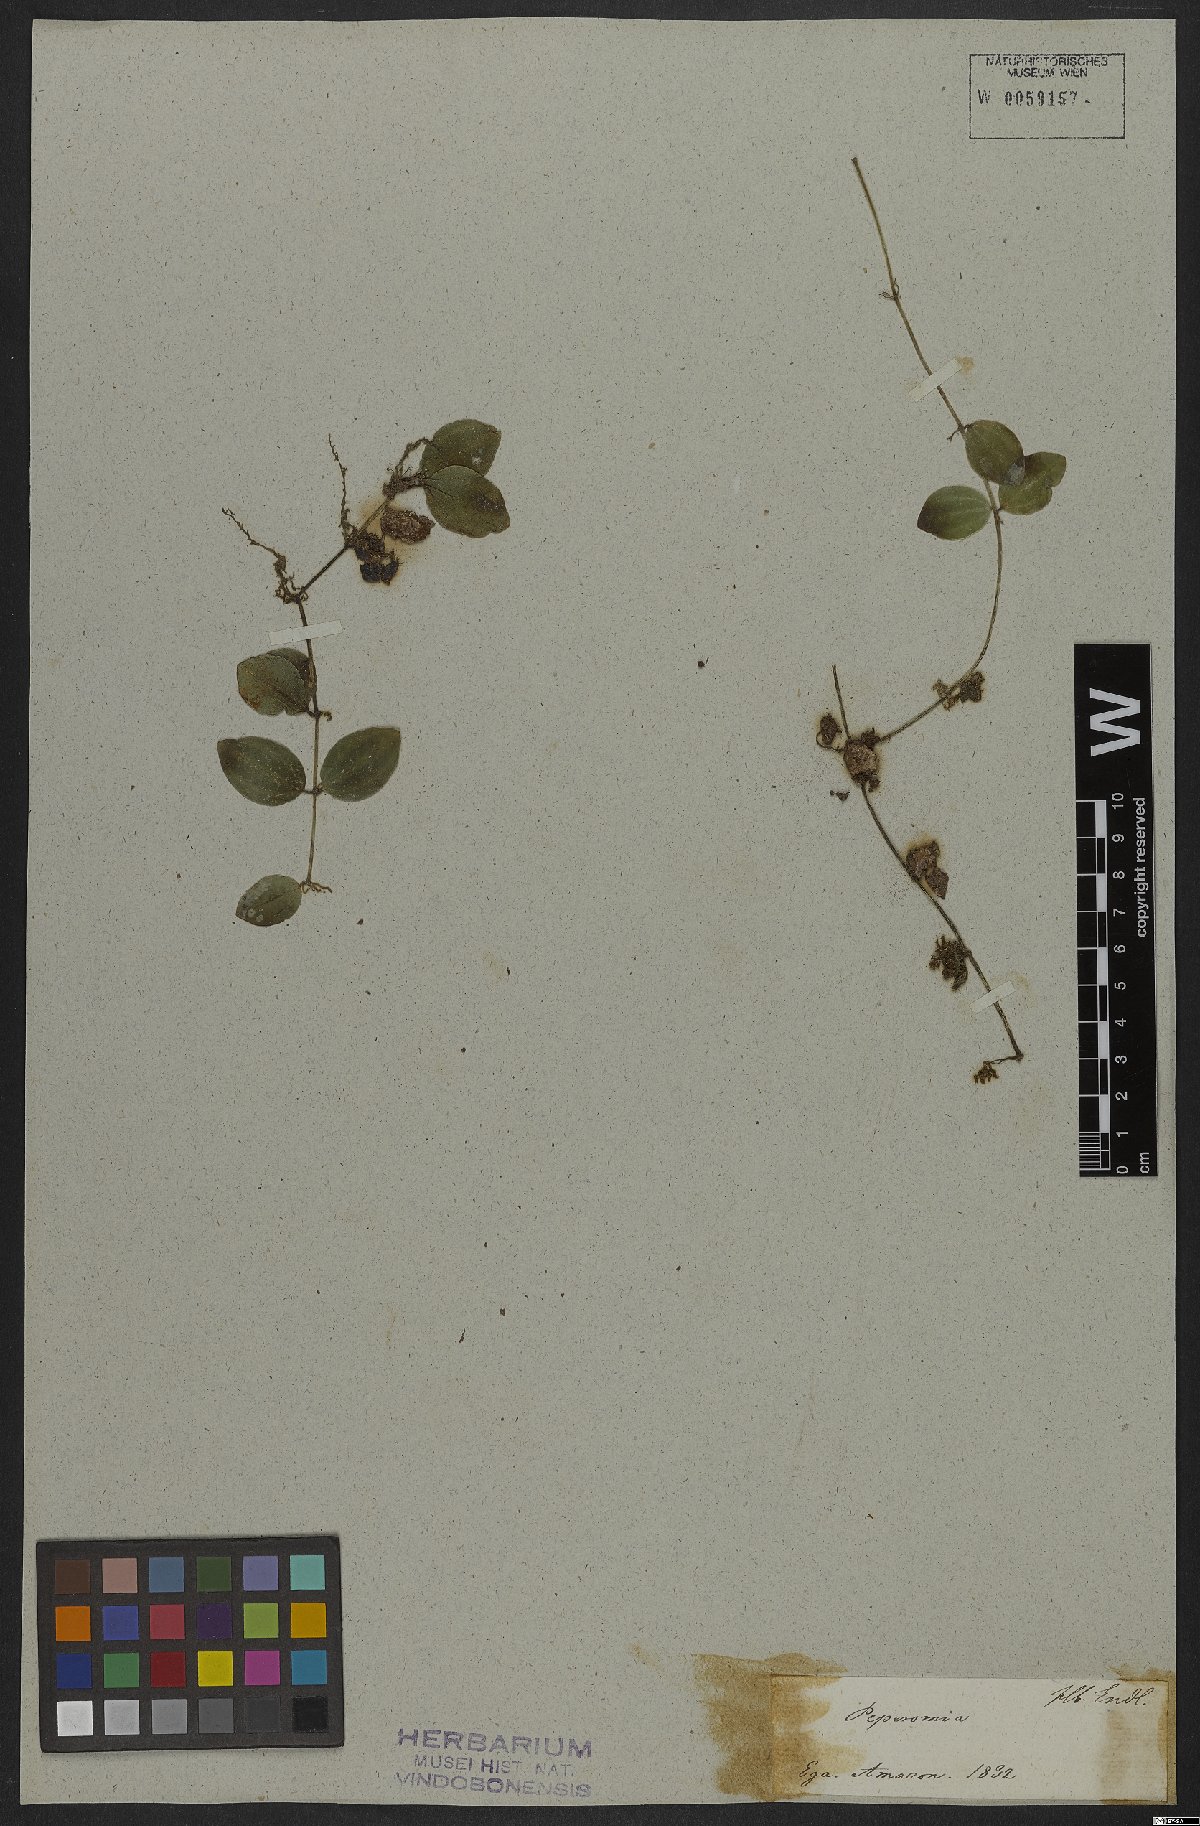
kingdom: Plantae
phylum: Tracheophyta
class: Magnoliopsida
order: Piperales
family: Piperaceae
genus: Peperomia
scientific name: Peperomia quadrangularis
